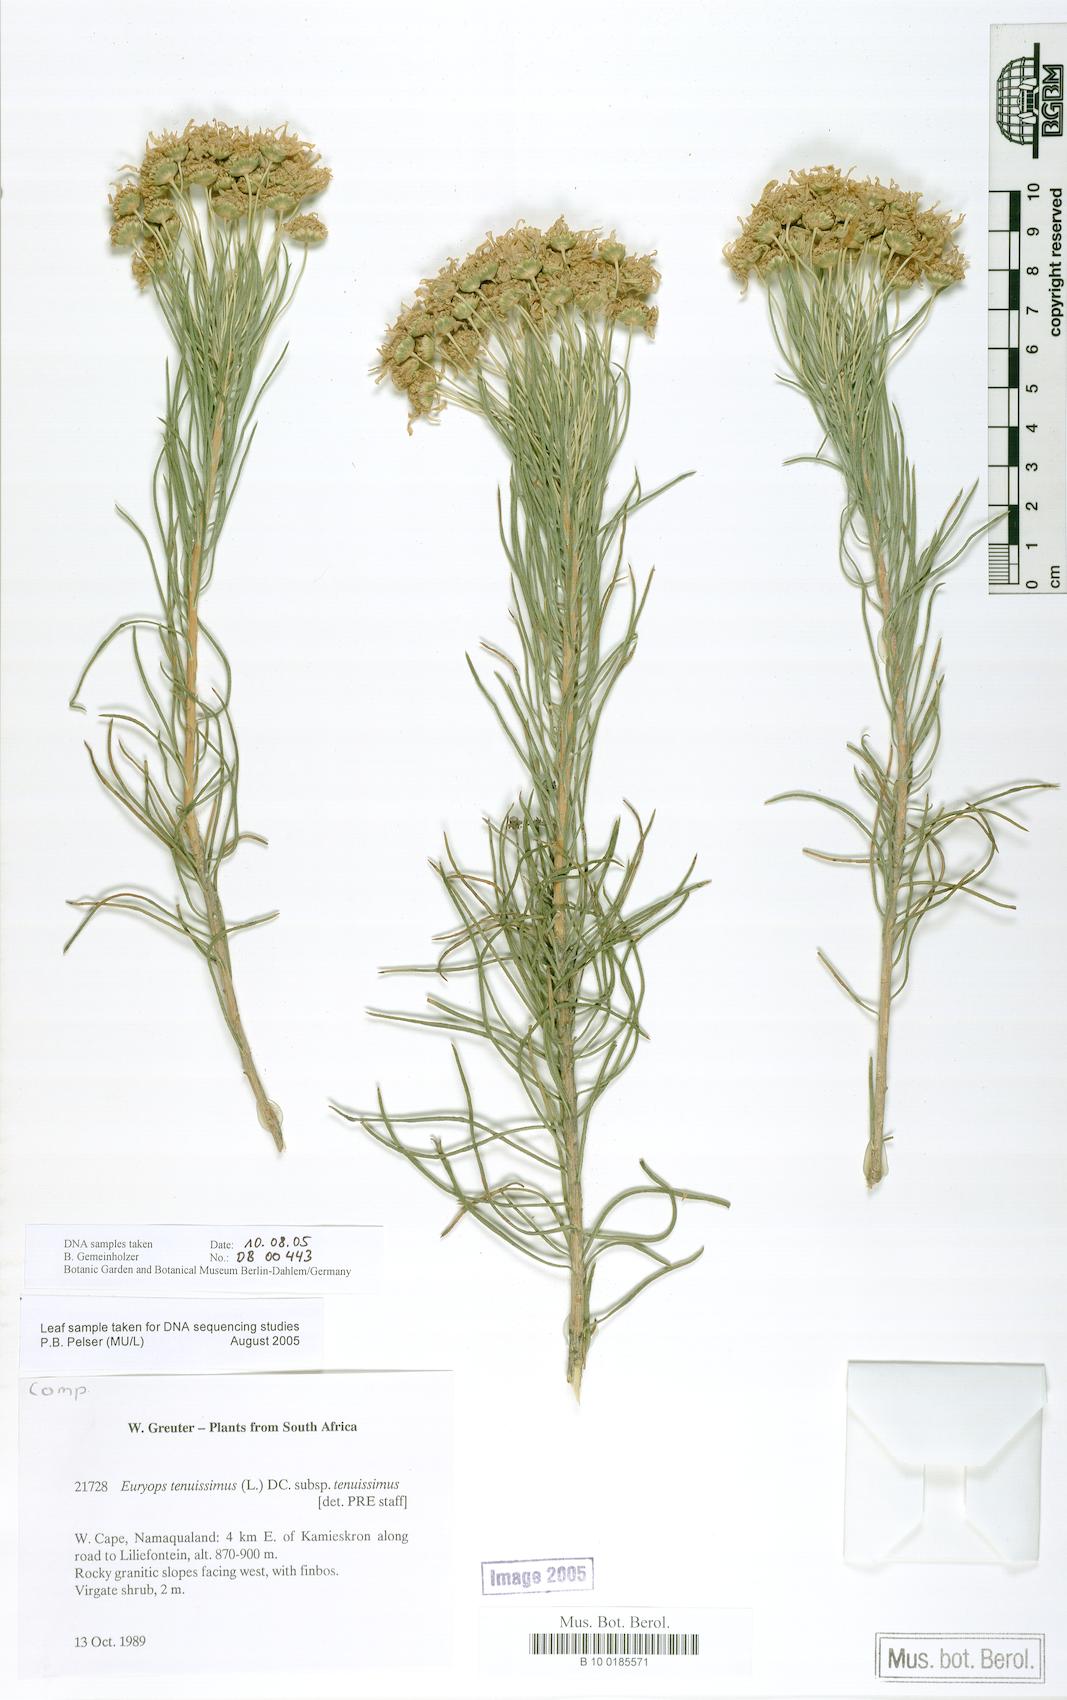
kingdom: Plantae
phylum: Tracheophyta
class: Magnoliopsida
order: Asterales
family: Asteraceae
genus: Euryops
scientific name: Euryops tenuissimus
